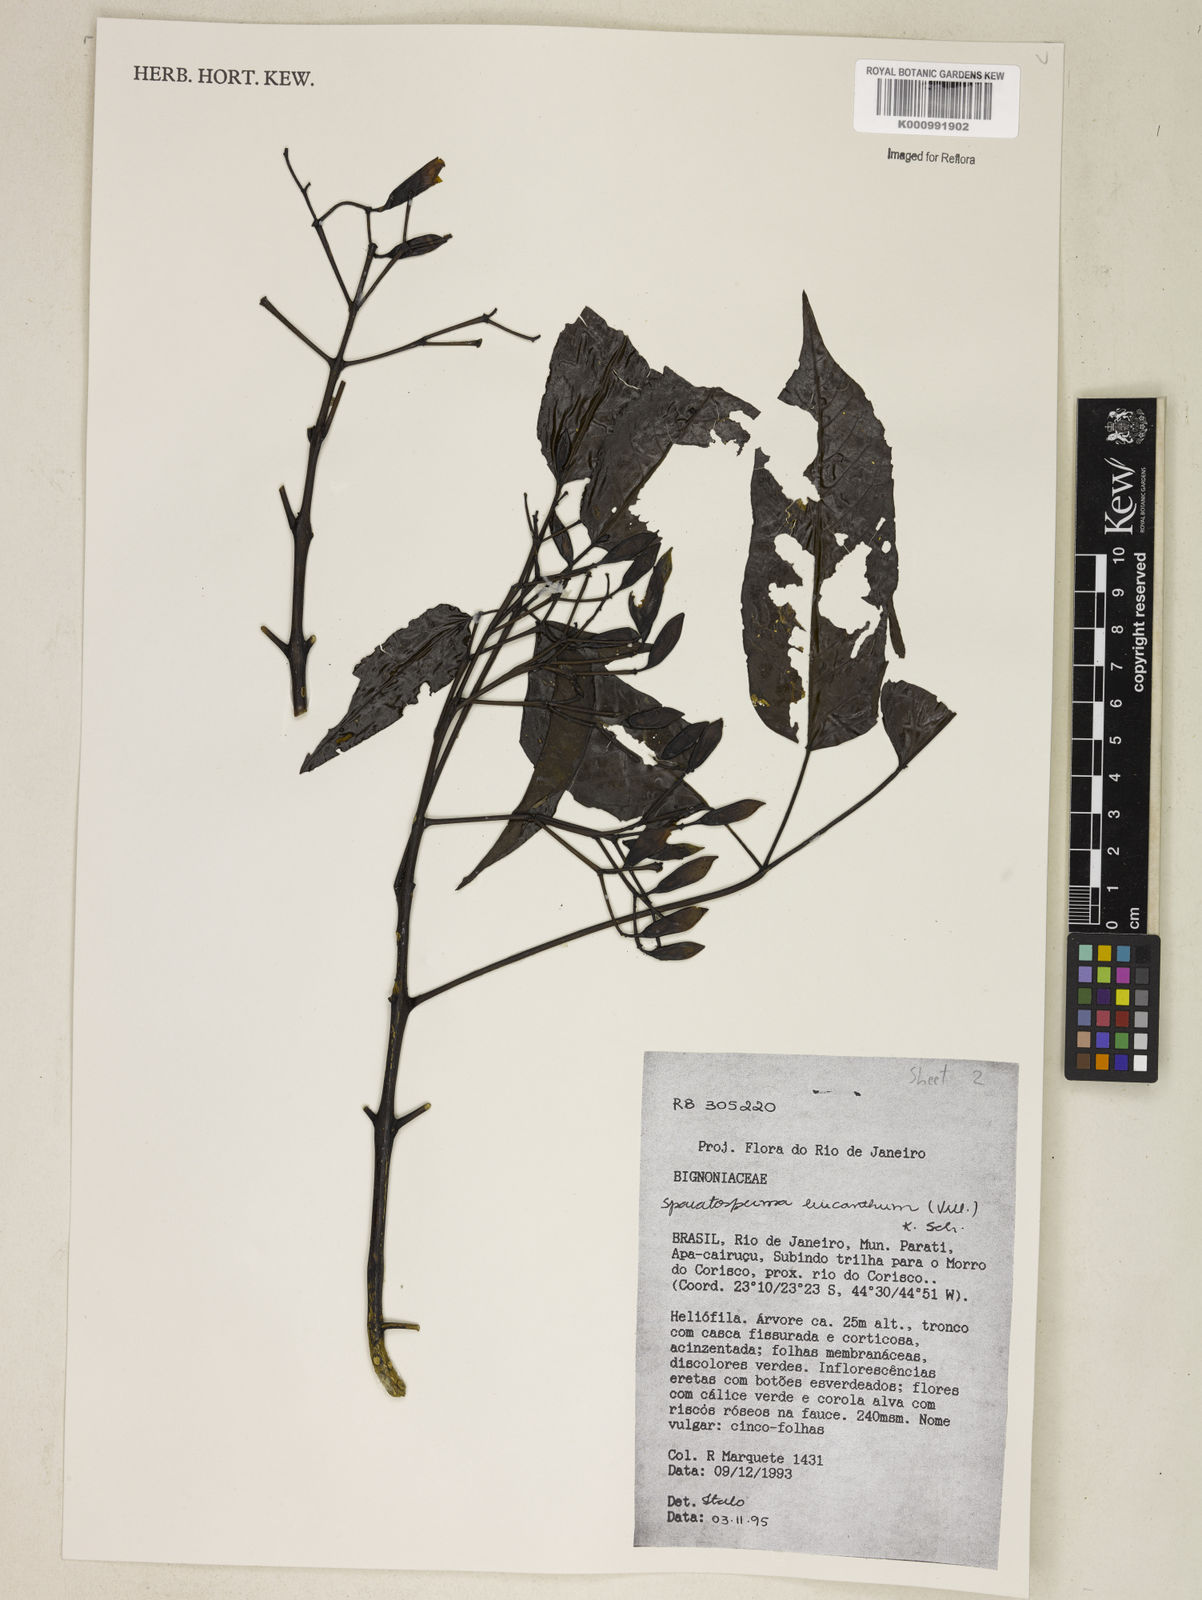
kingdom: Plantae
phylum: Tracheophyta
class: Magnoliopsida
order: Lamiales
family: Bignoniaceae
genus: Sparattosperma
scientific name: Sparattosperma leucanthum
